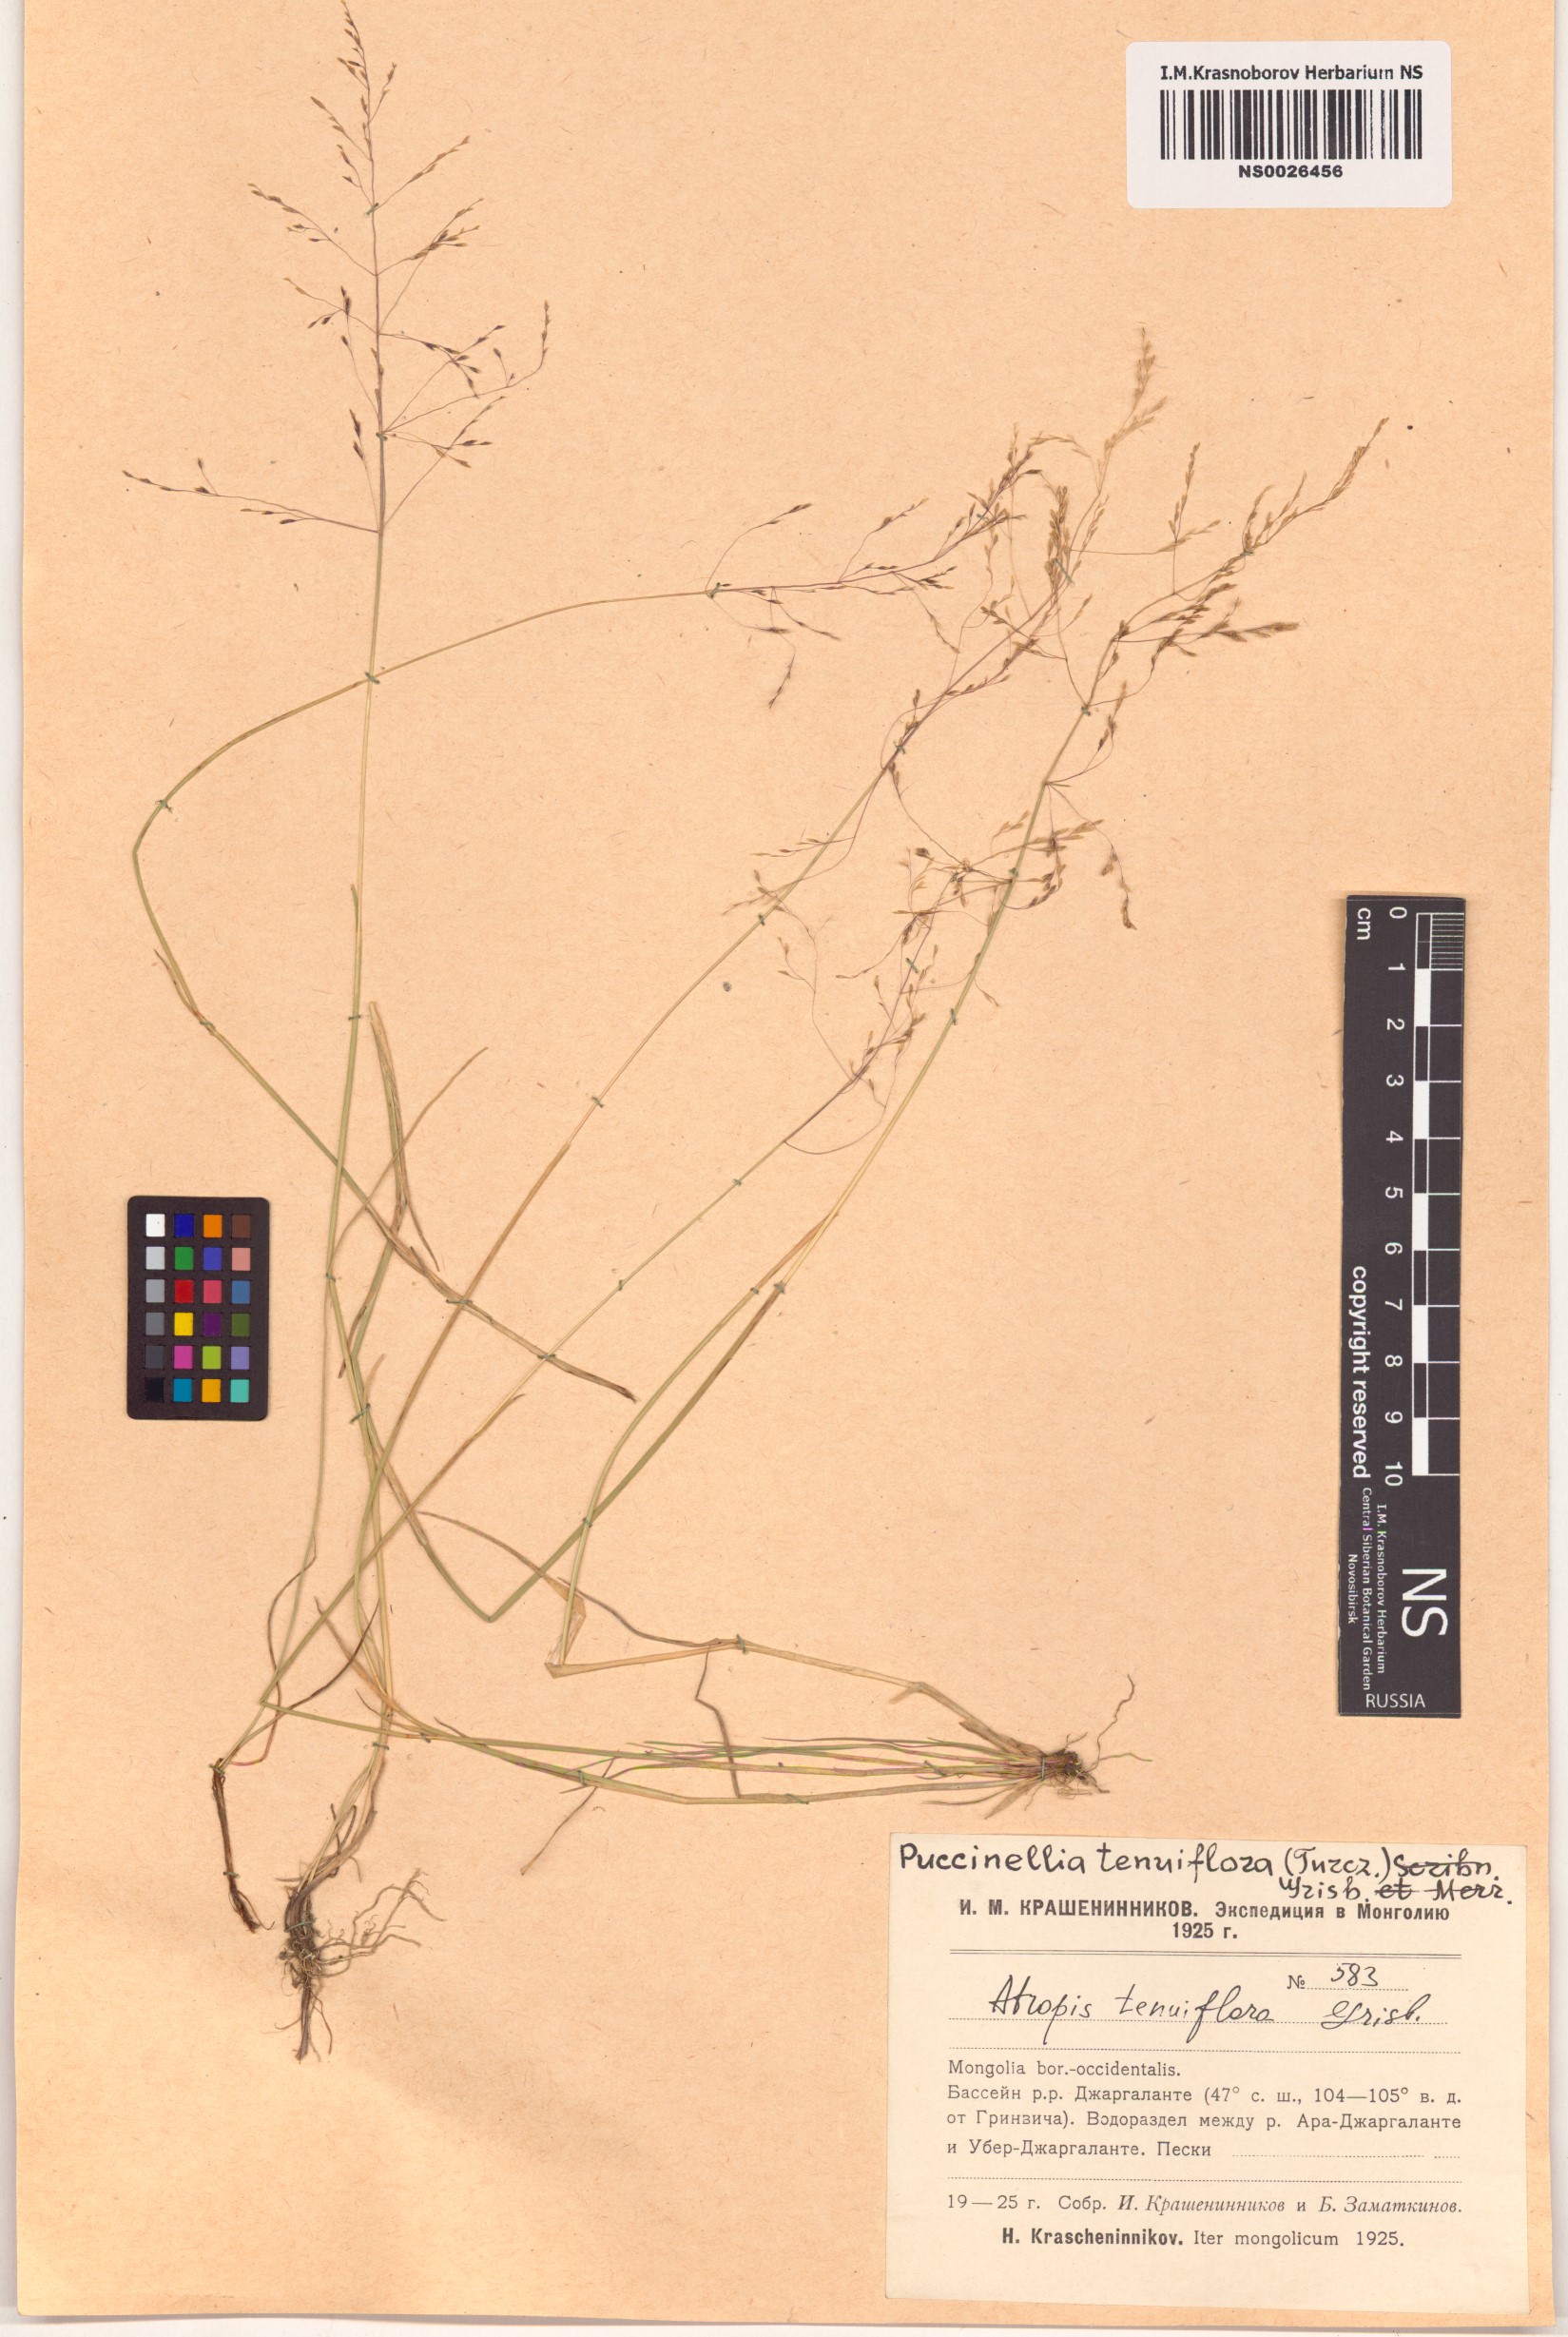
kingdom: Plantae
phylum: Tracheophyta
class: Liliopsida
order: Poales
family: Poaceae
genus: Puccinellia
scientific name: Puccinellia tenuiflora
